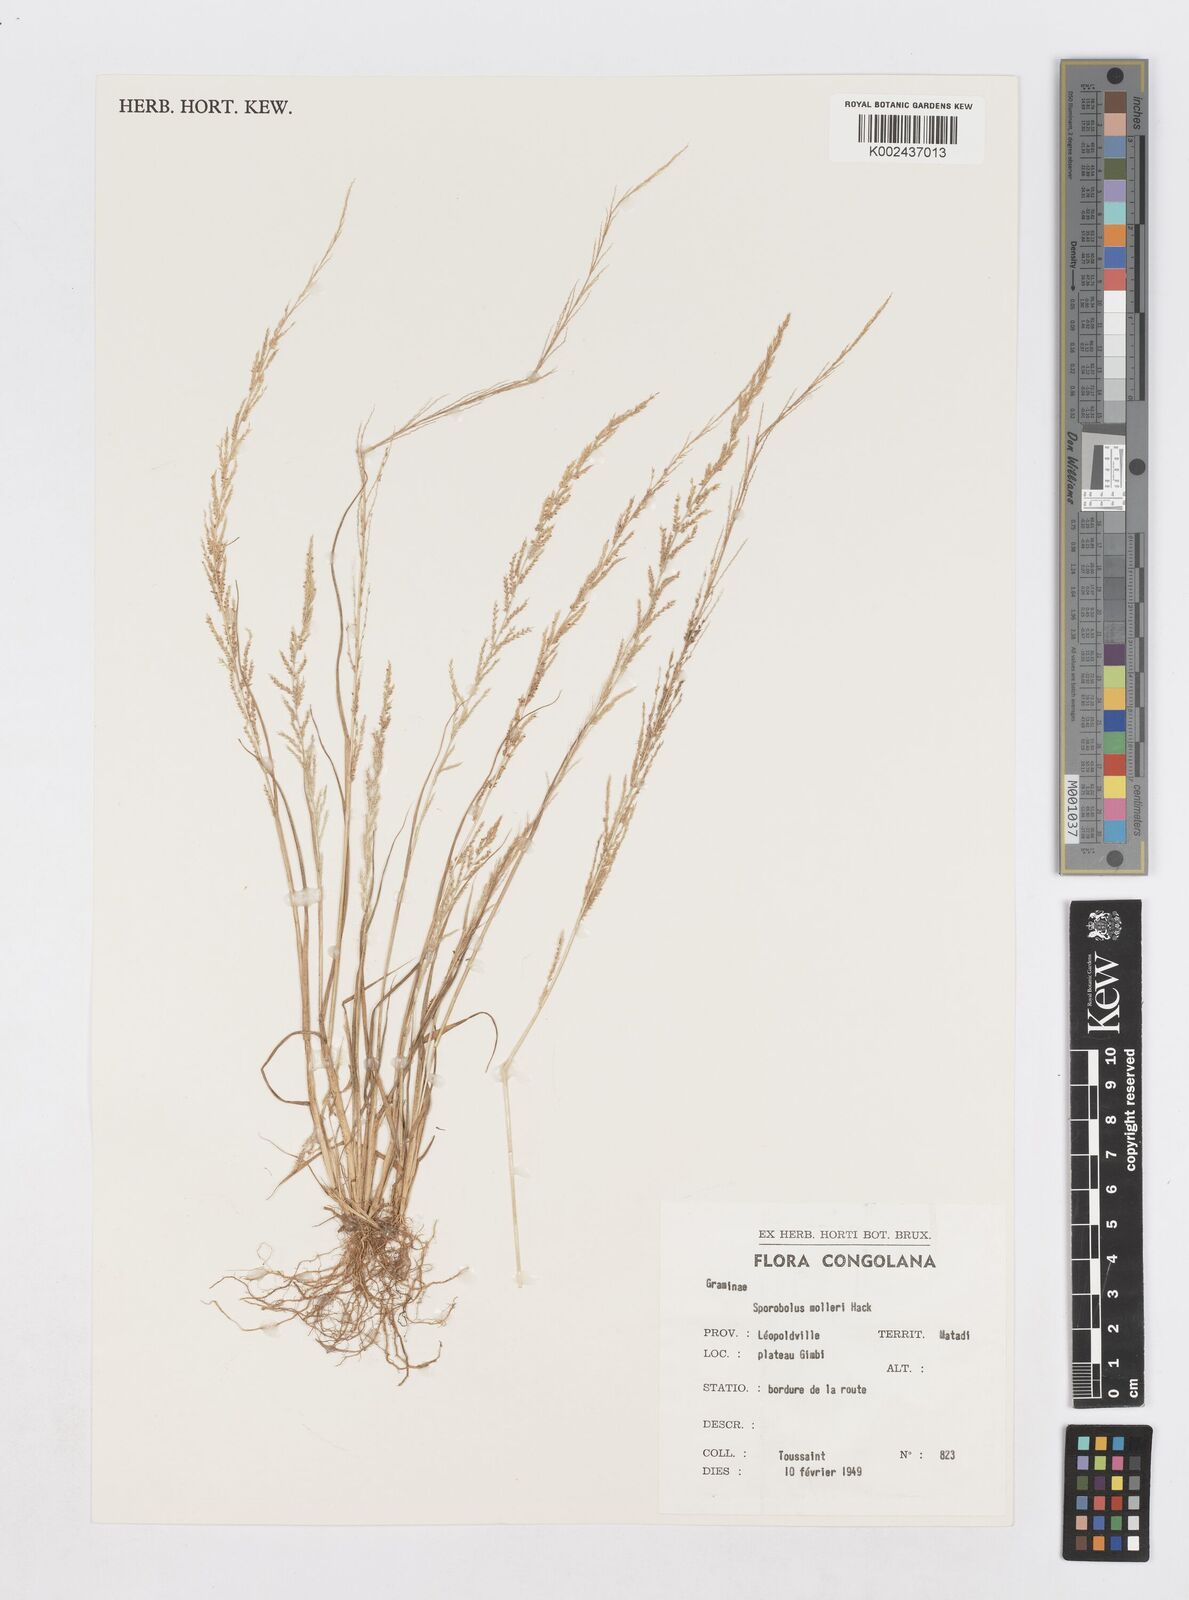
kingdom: Plantae
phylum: Tracheophyta
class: Liliopsida
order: Poales
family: Poaceae
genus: Sporobolus
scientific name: Sporobolus molleri
